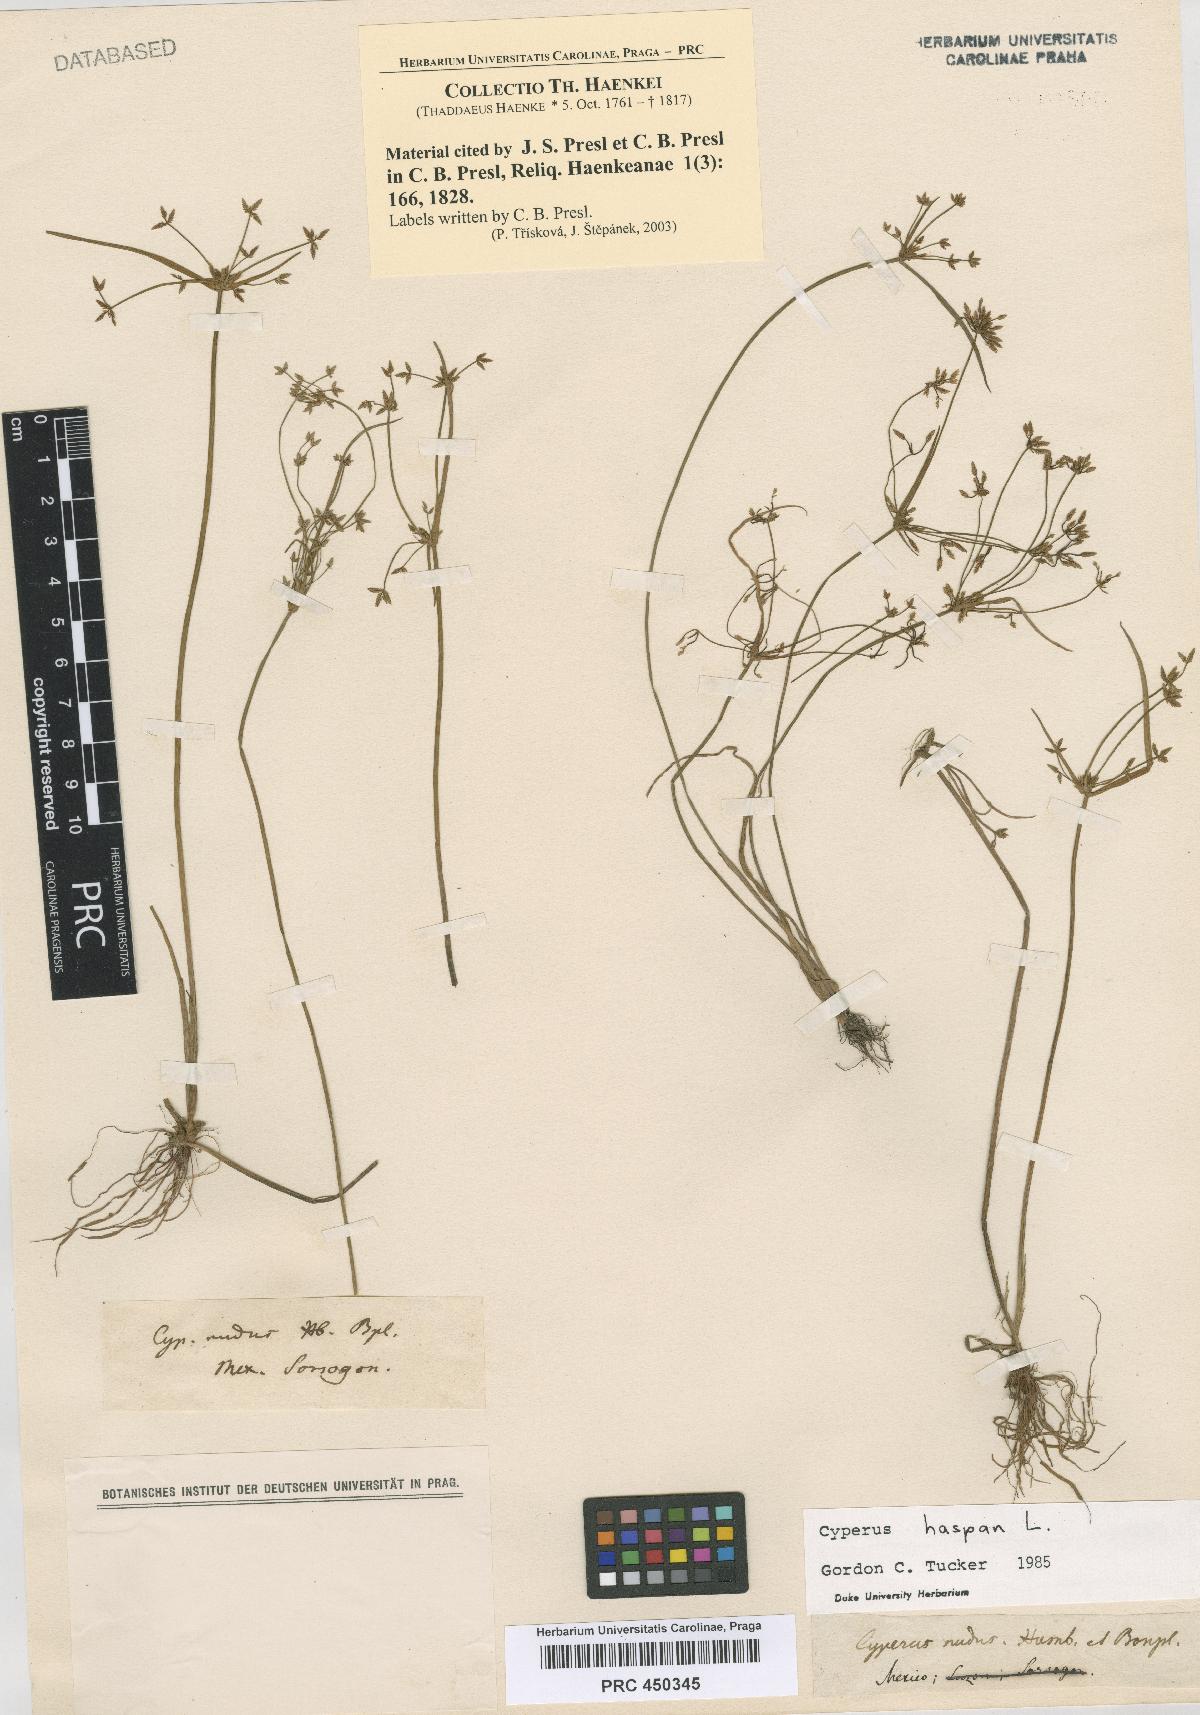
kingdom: Plantae
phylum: Tracheophyta
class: Liliopsida
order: Poales
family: Cyperaceae
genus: Cyperus
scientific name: Cyperus haspan
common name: Haspan flatsedge
